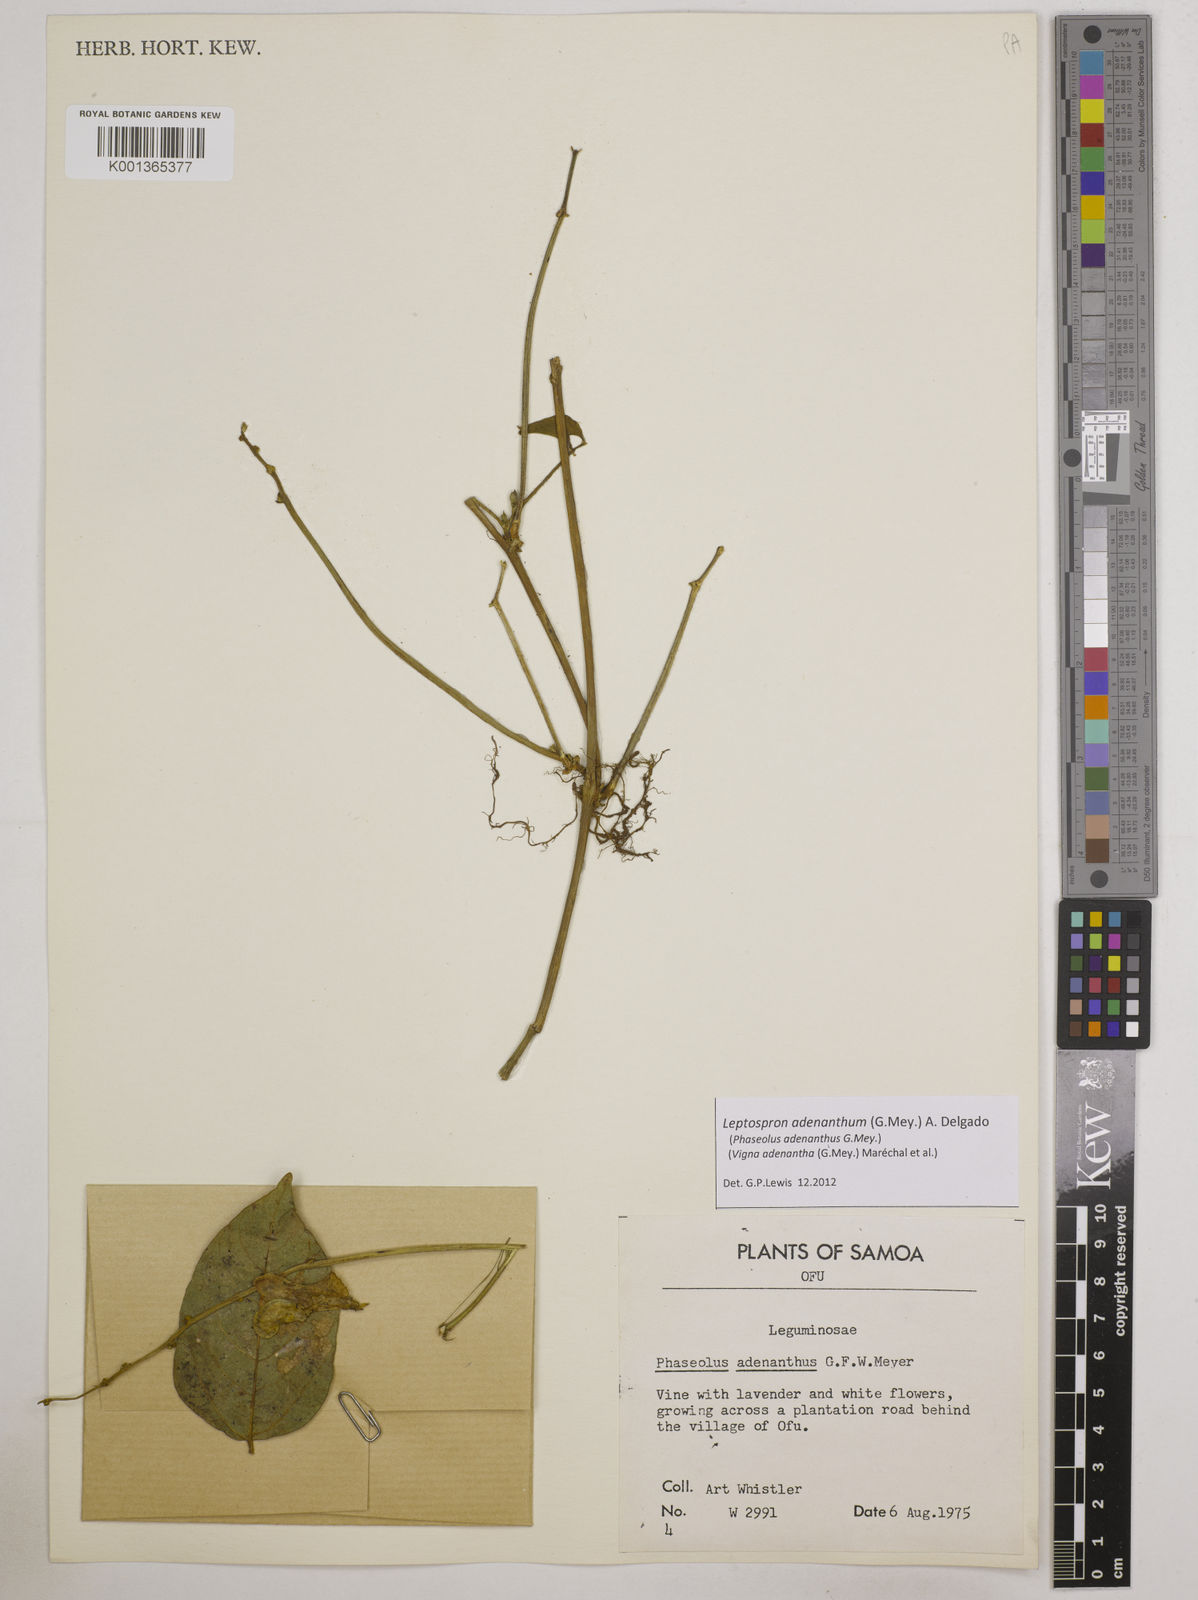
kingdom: Plantae
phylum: Tracheophyta
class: Magnoliopsida
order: Fabales
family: Fabaceae
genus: Leptospron
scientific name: Leptospron adenanthum
